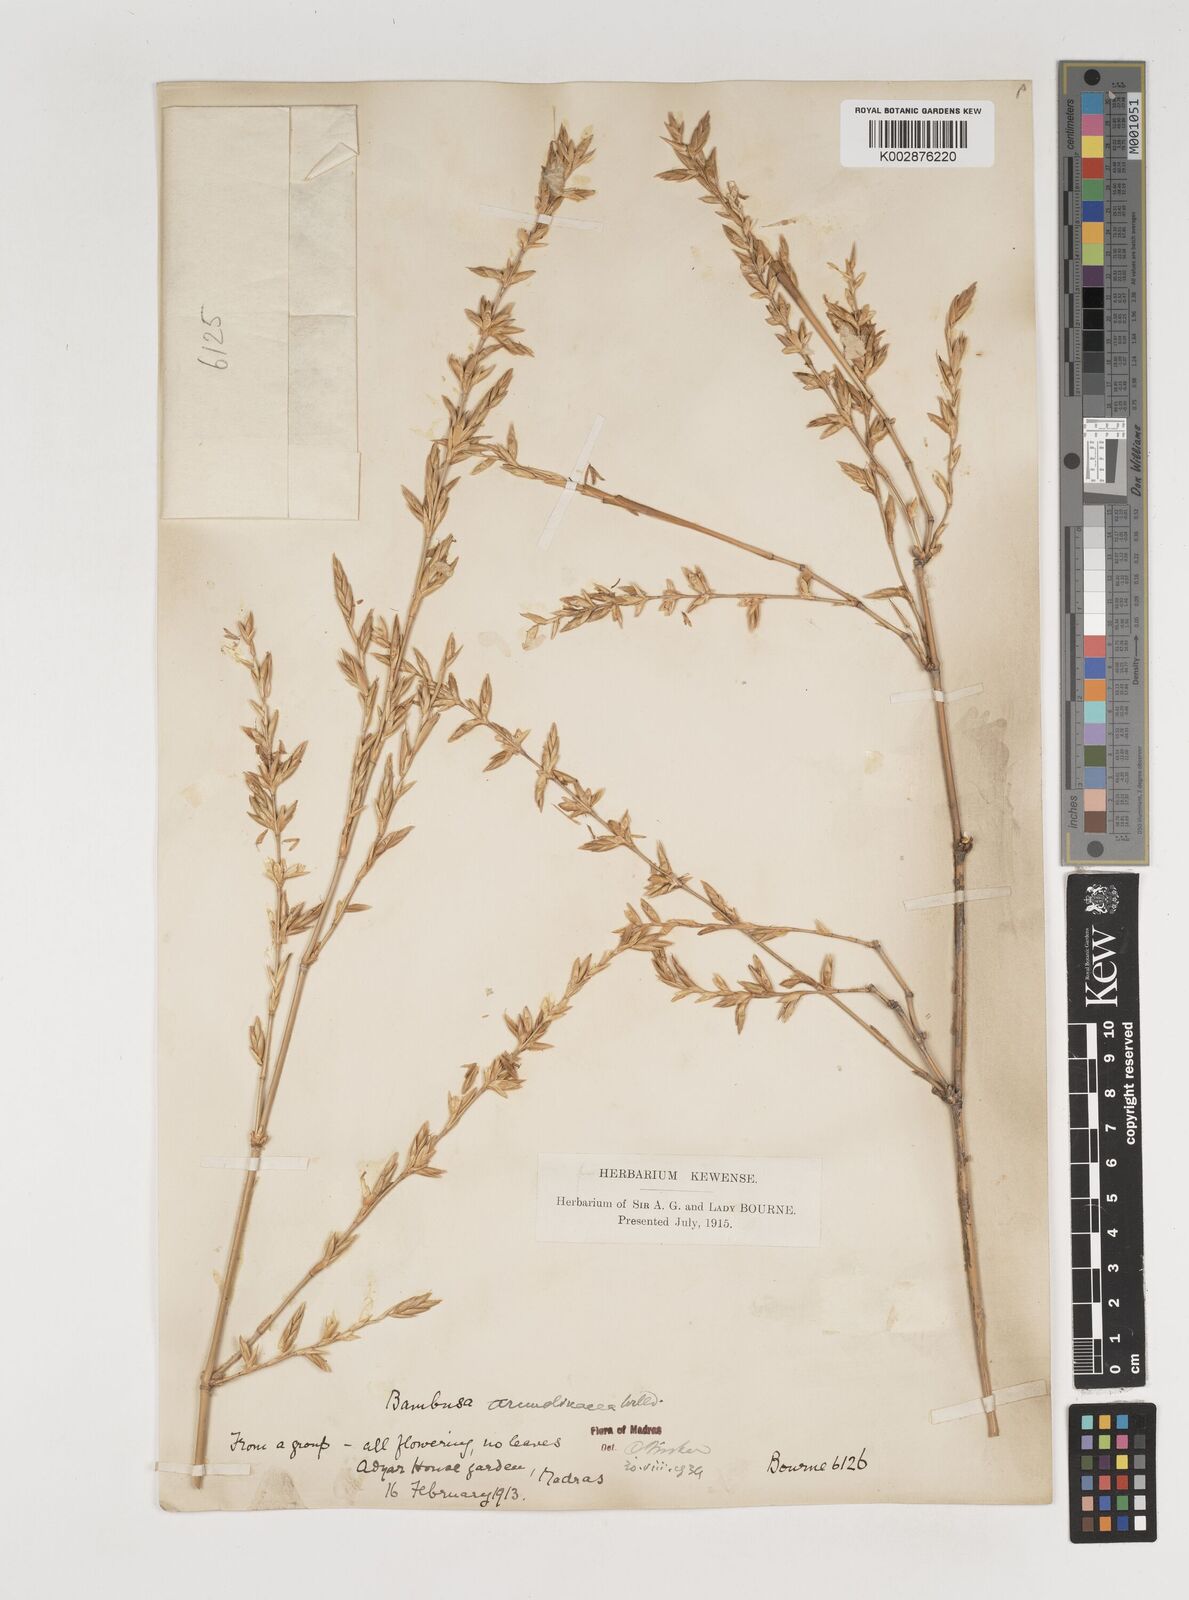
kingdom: Plantae
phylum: Tracheophyta
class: Liliopsida
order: Poales
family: Poaceae
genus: Bambusa
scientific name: Bambusa bambos
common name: Indian thorny bamboo
